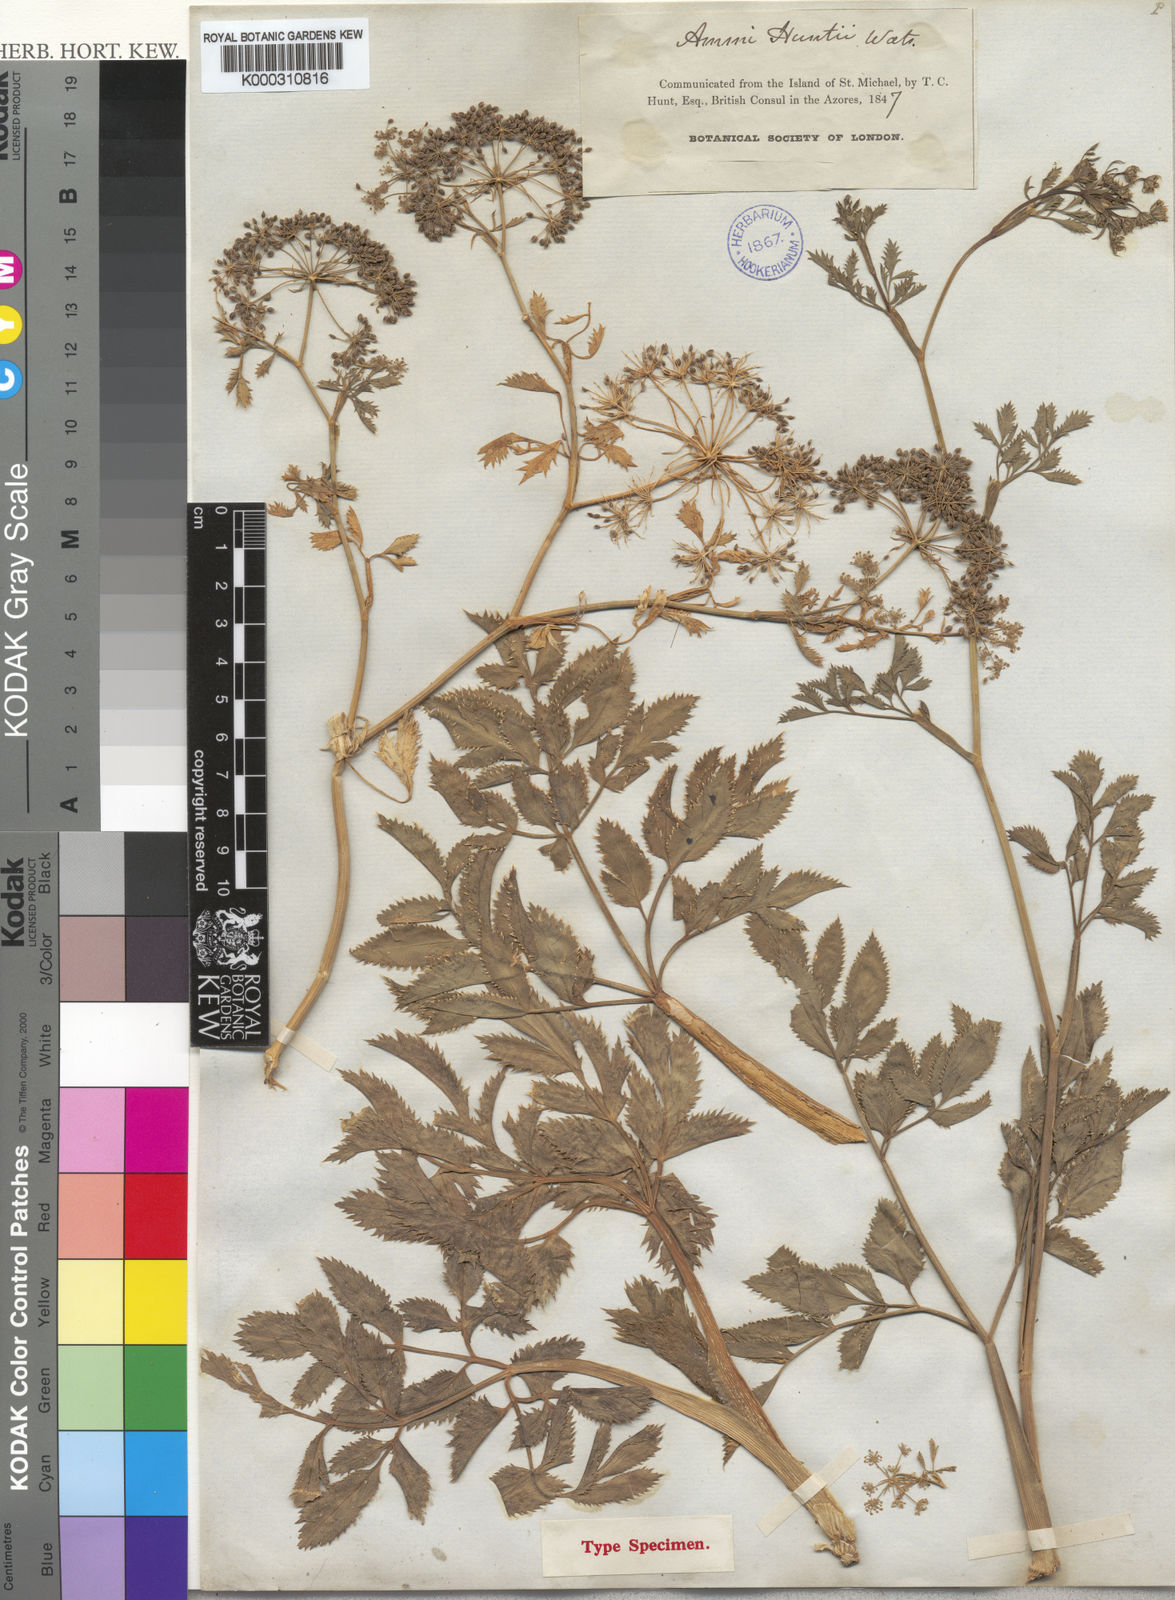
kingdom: Plantae
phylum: Tracheophyta
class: Magnoliopsida
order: Apiales
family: Apiaceae
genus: Ammi
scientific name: Ammi trifoliatum
